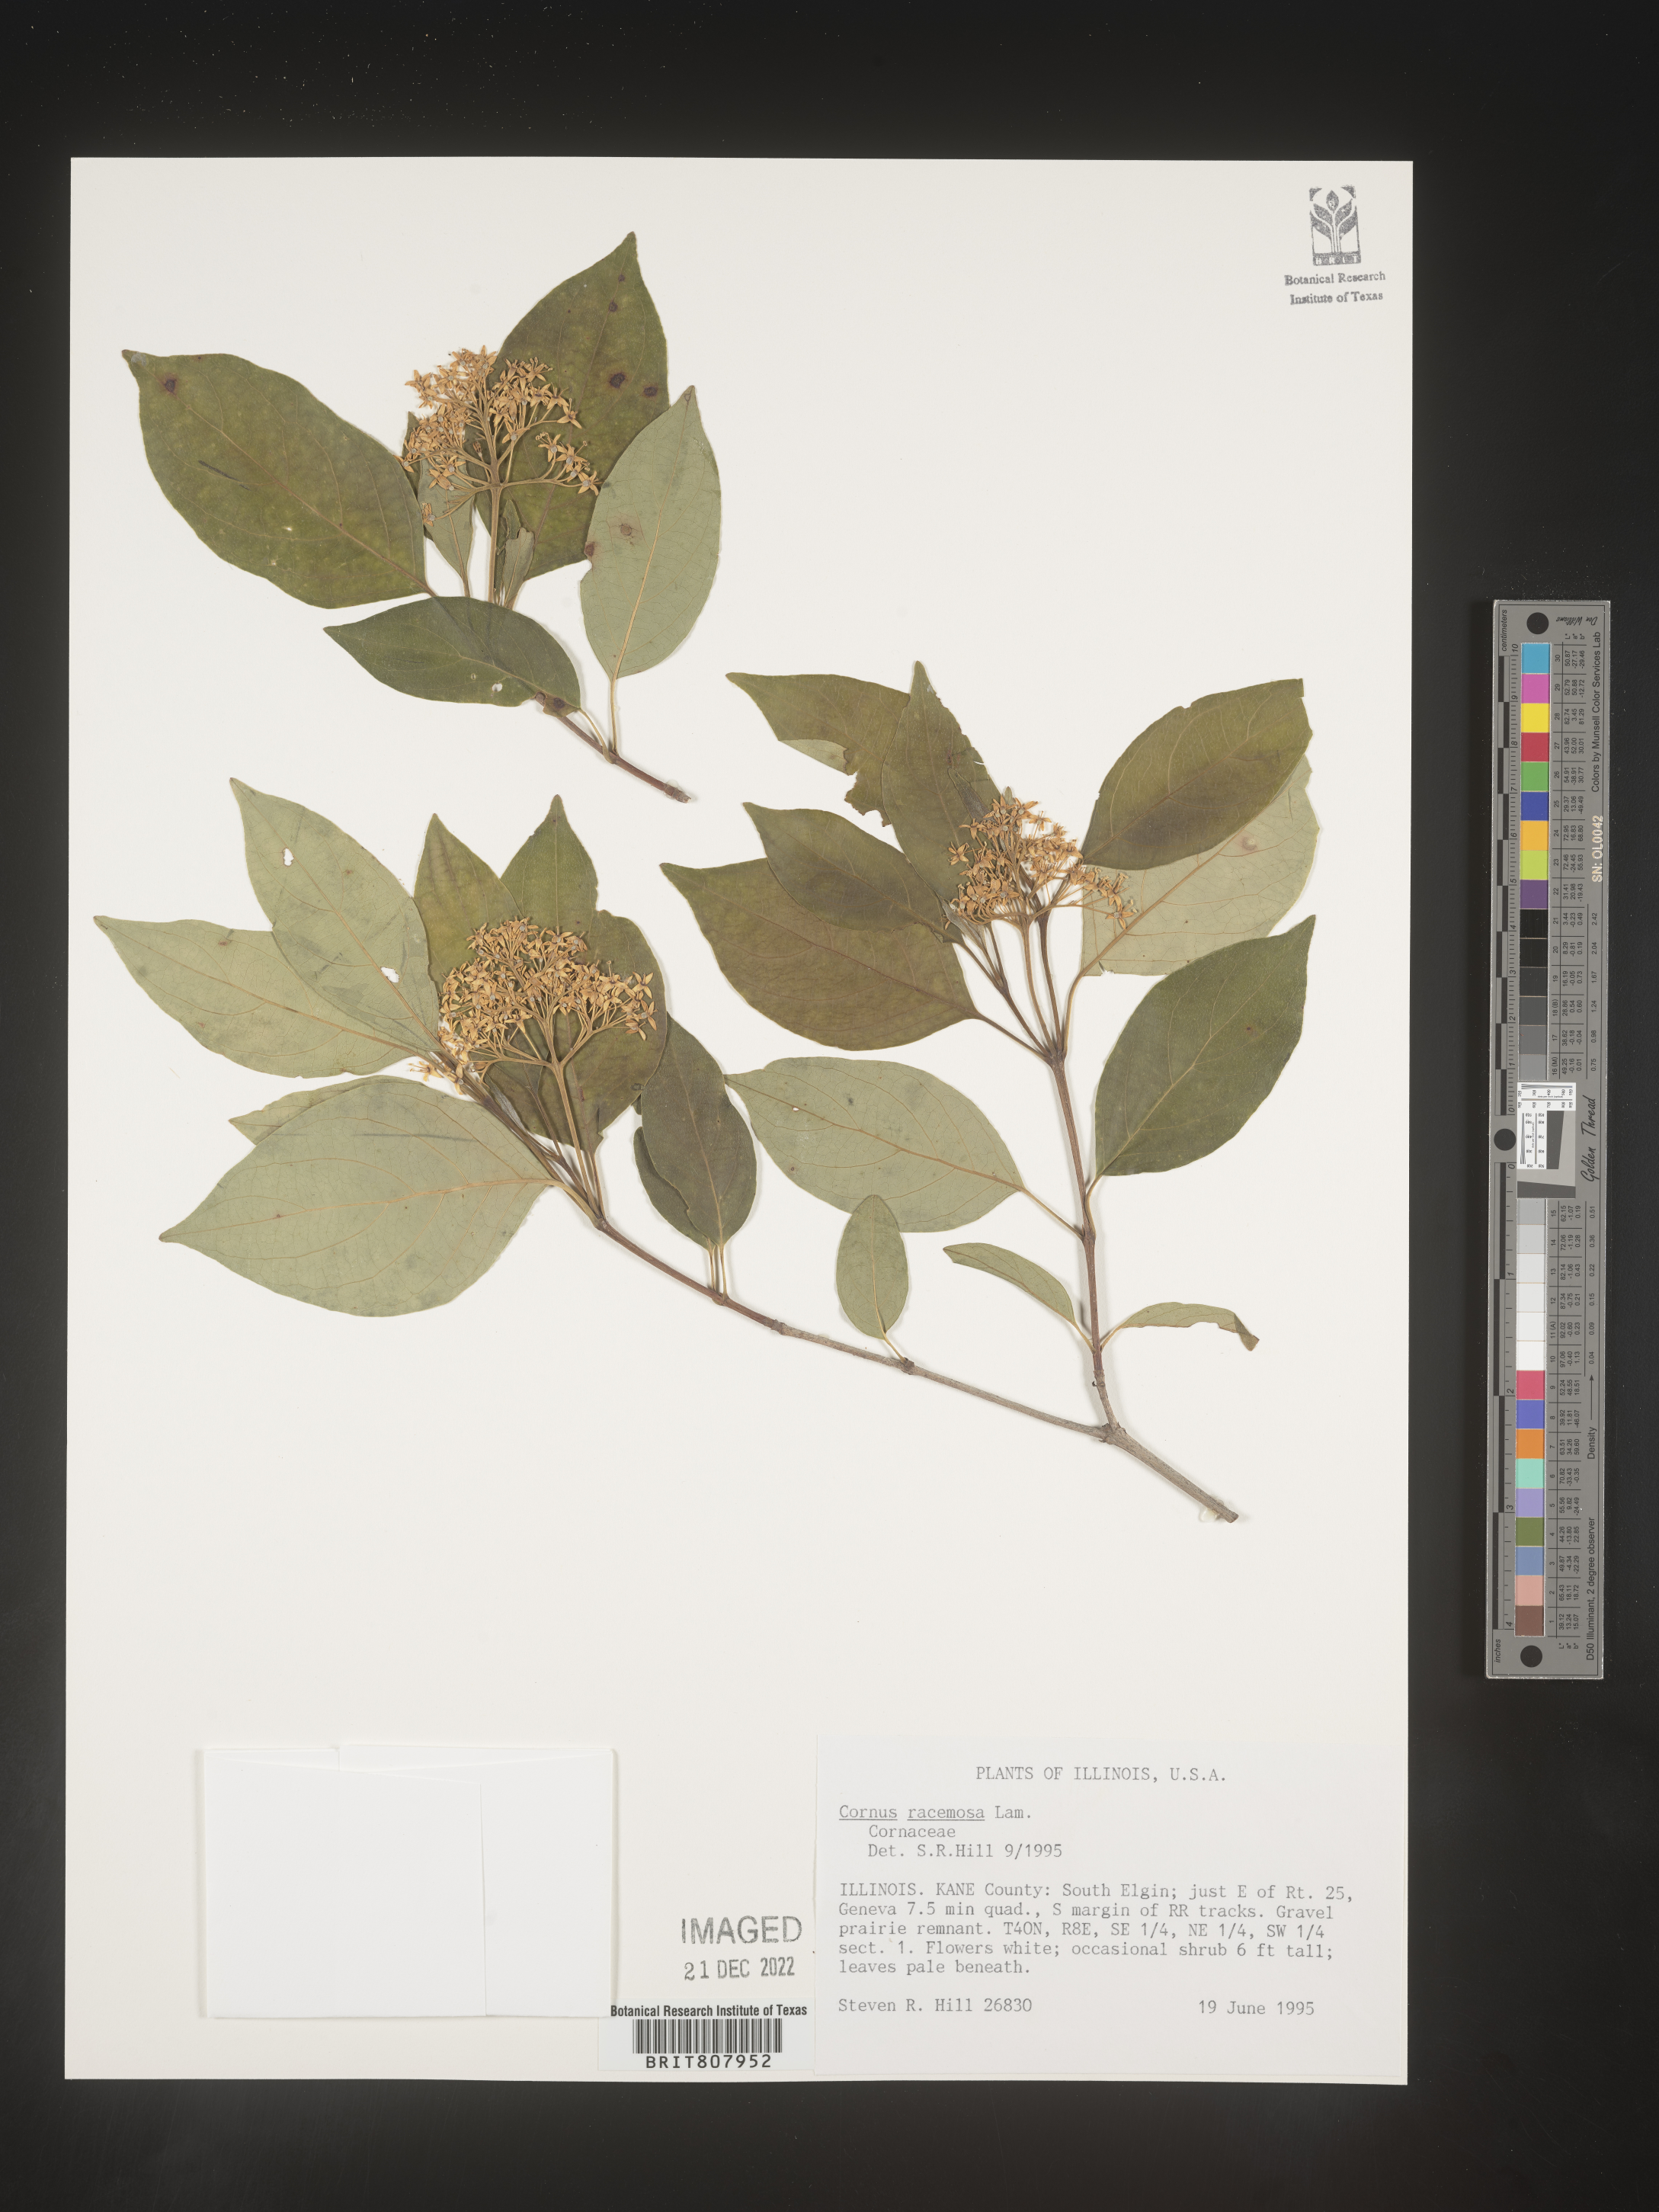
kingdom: Plantae
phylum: Tracheophyta
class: Magnoliopsida
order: Cornales
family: Cornaceae
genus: Cornus
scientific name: Cornus racemosa
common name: Panicled dogwood
